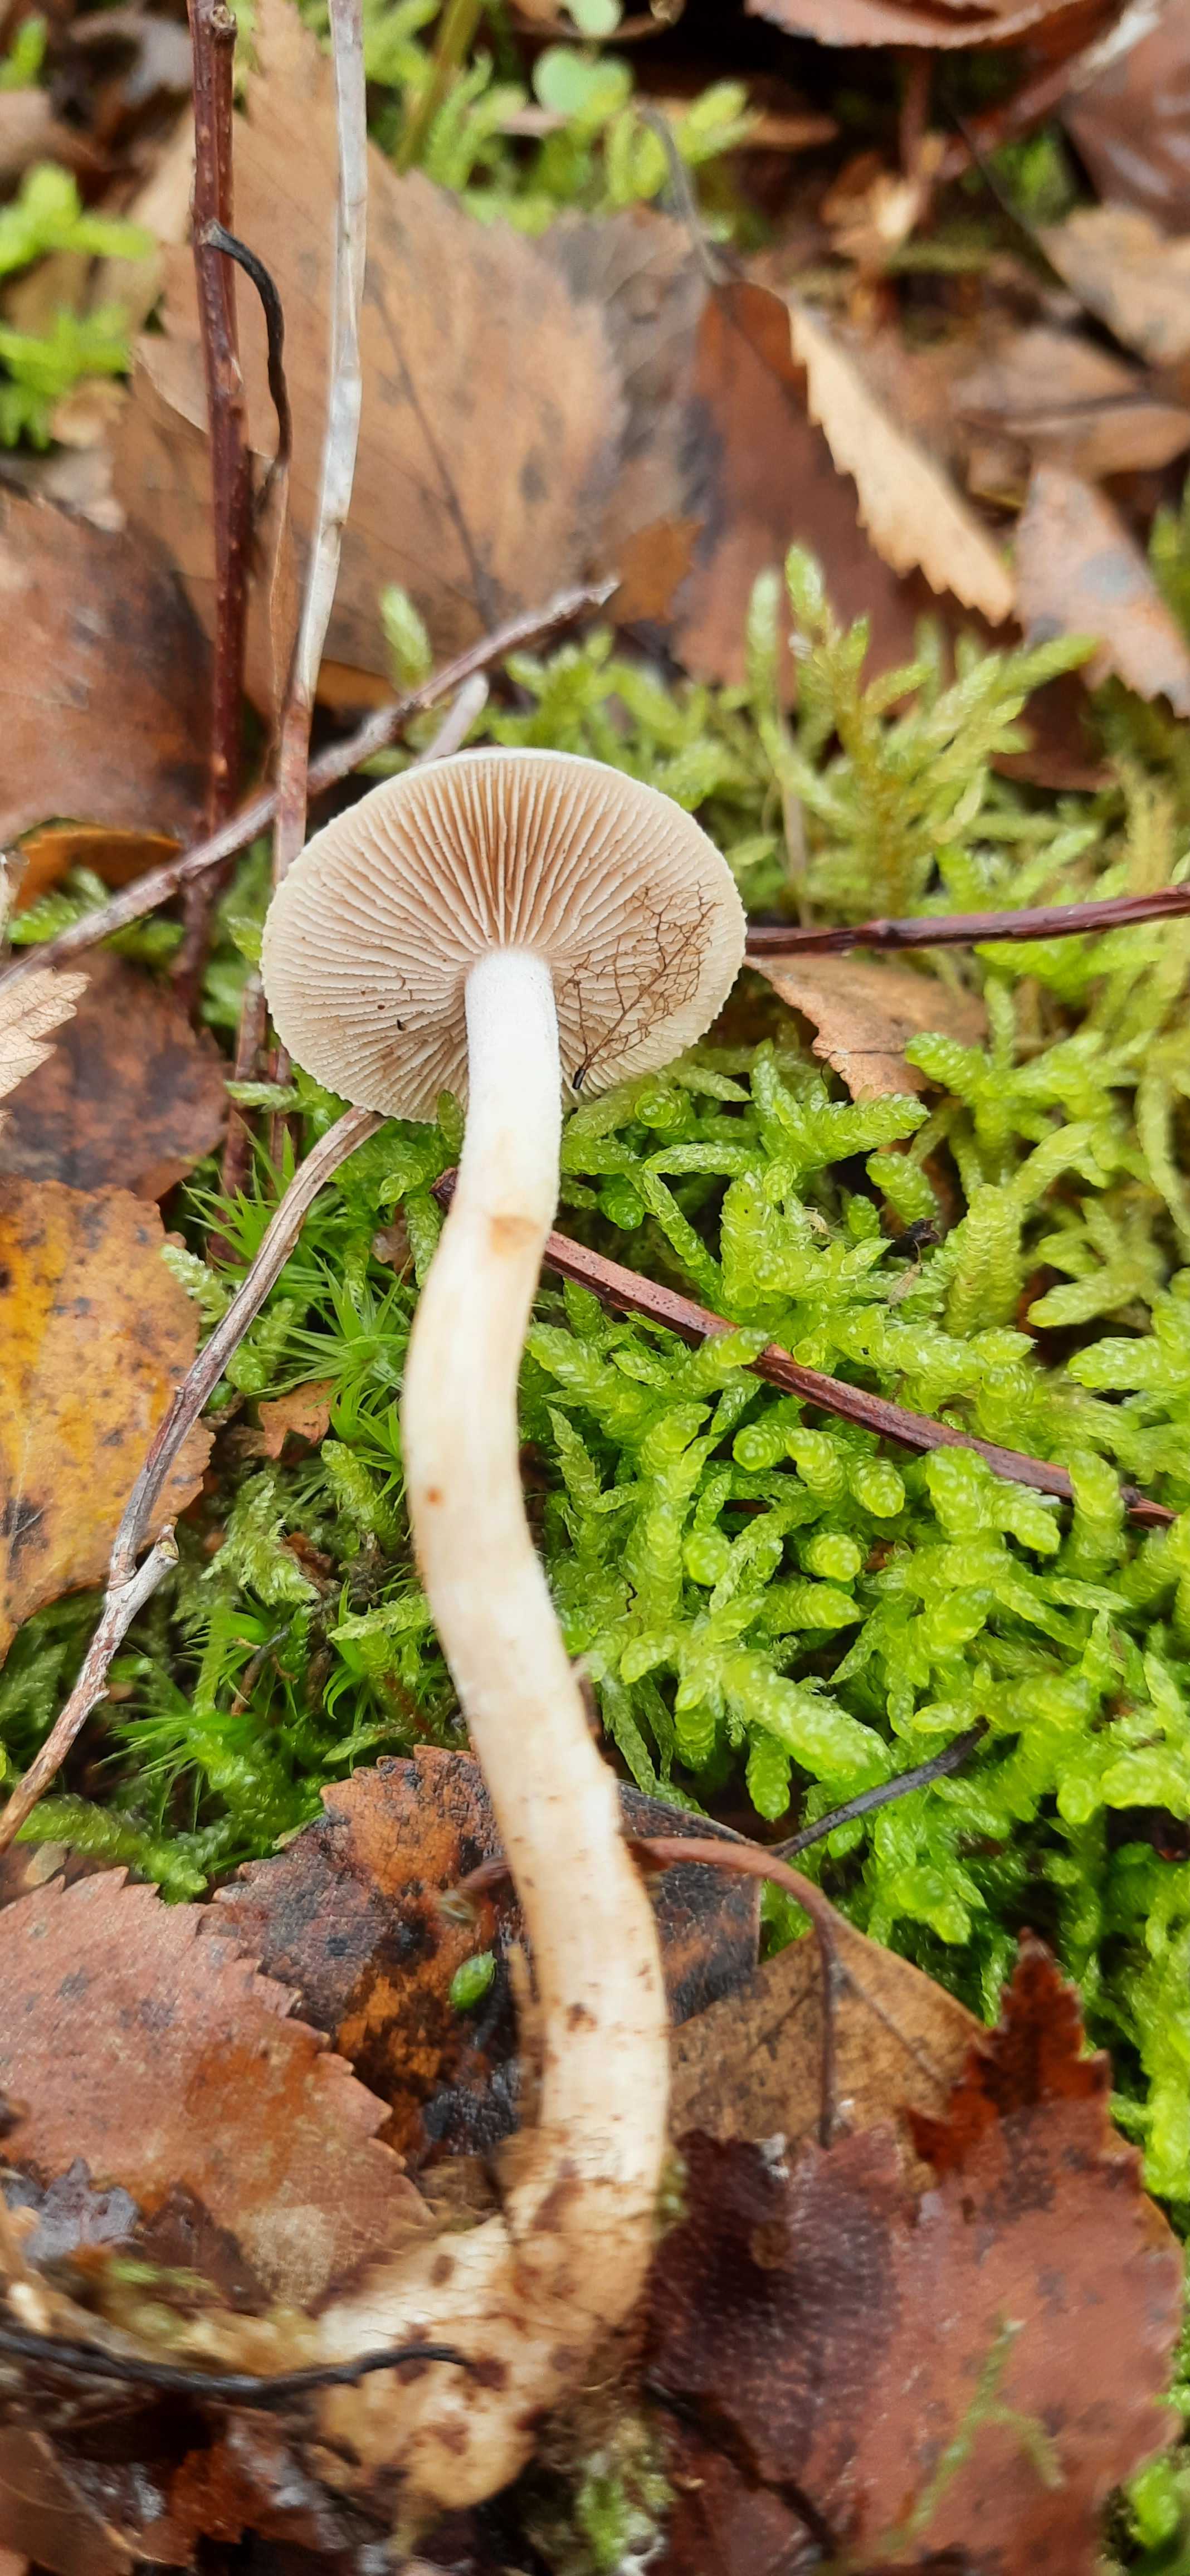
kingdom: Fungi
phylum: Basidiomycota
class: Agaricomycetes
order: Agaricales
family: Hymenogastraceae
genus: Hebeloma
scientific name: Hebeloma
